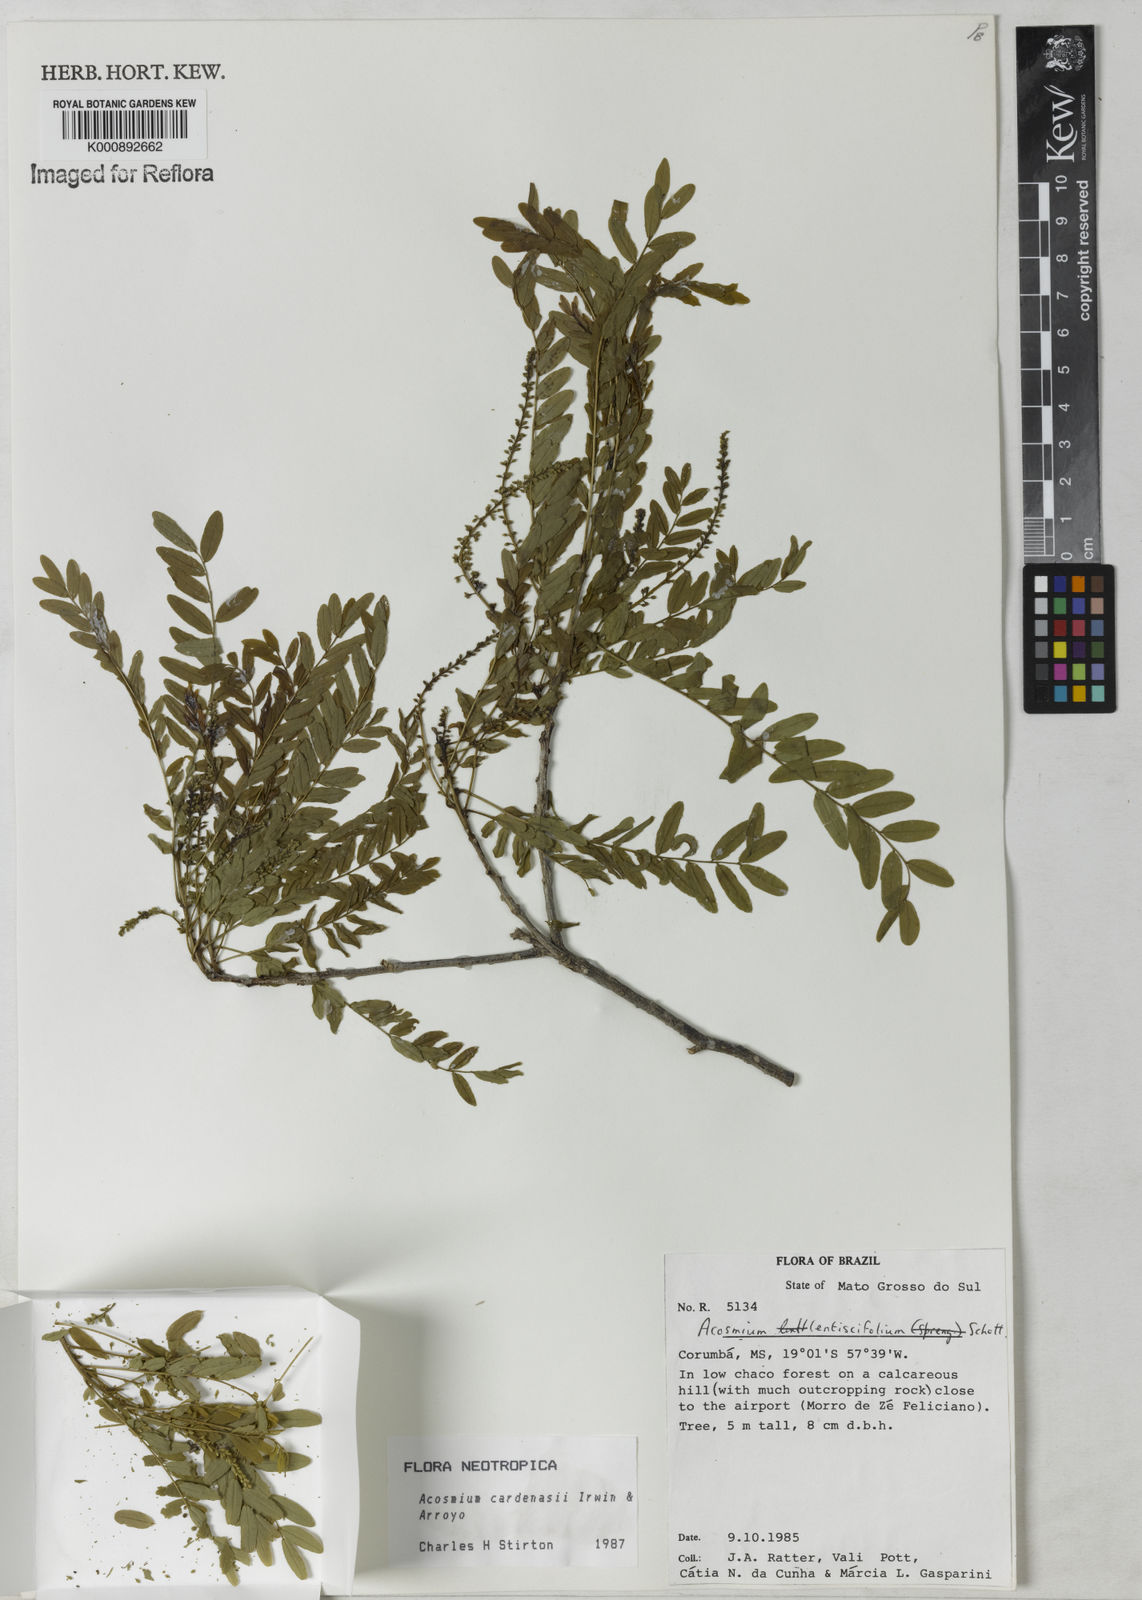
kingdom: Plantae
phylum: Tracheophyta
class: Magnoliopsida
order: Fabales
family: Fabaceae
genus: Acosmium
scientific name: Acosmium cardenasii
